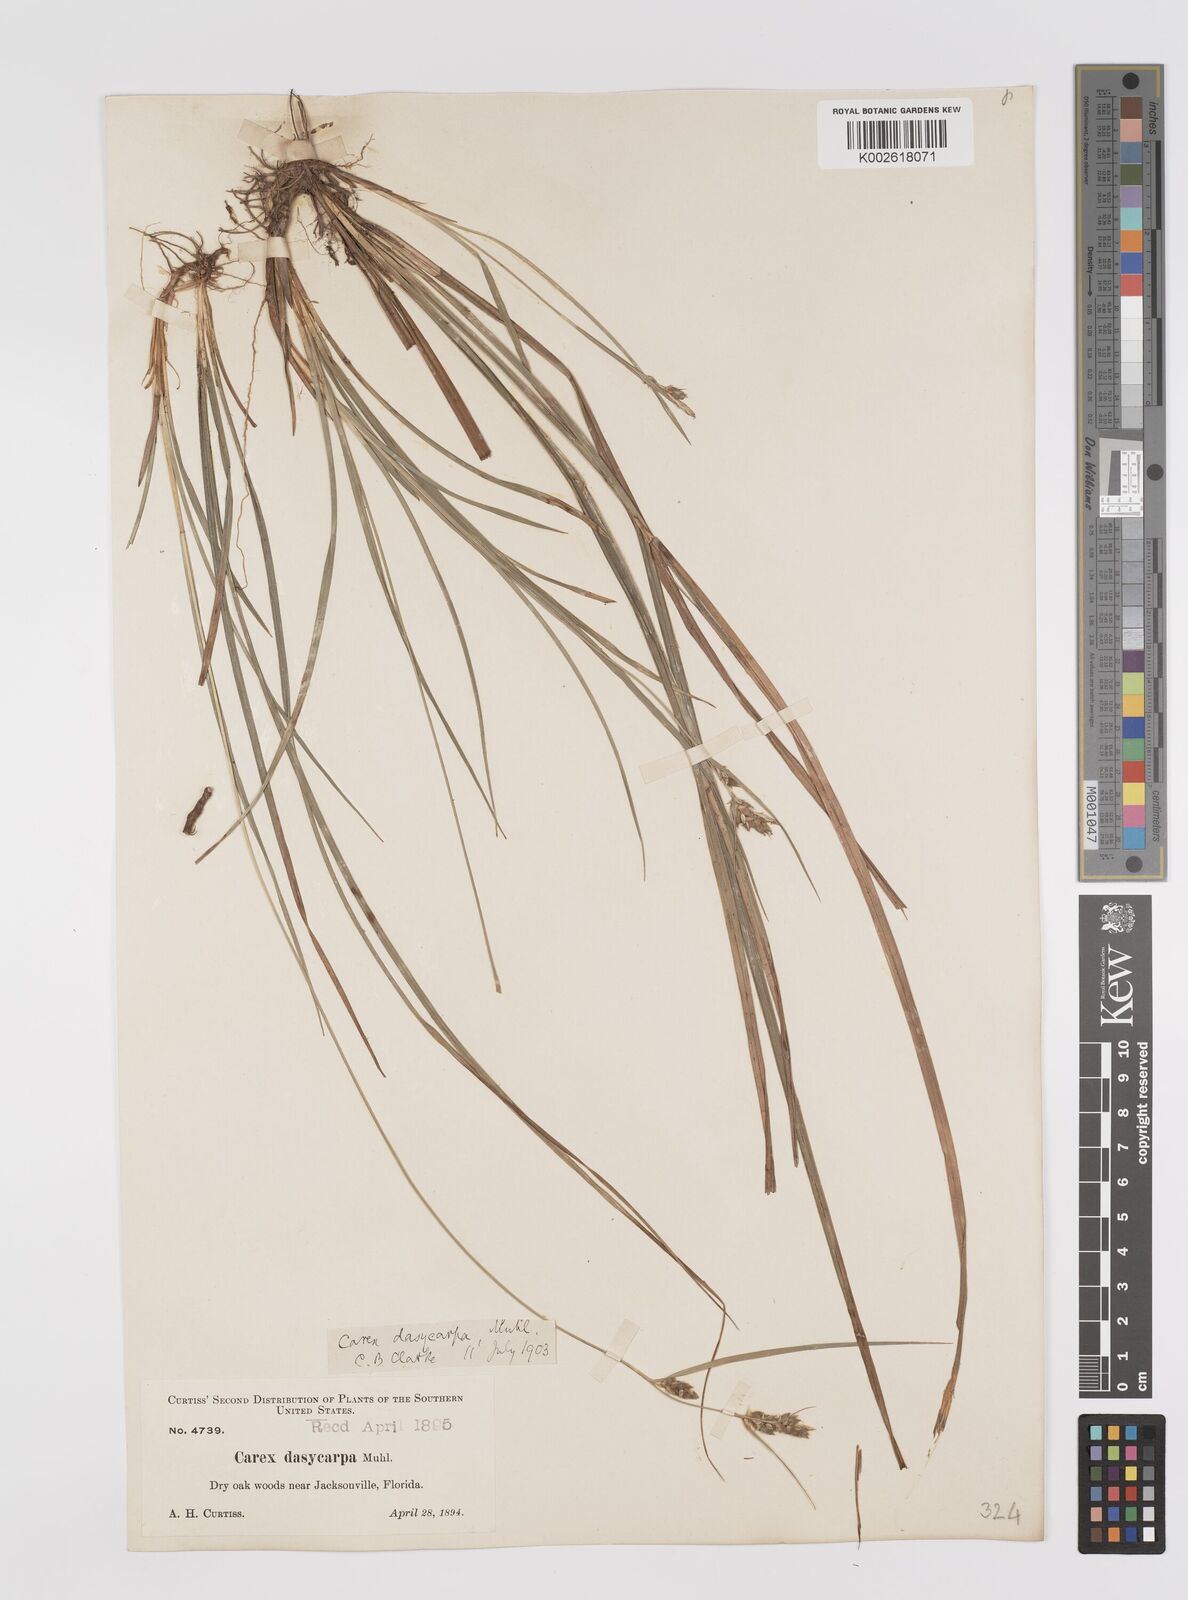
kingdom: Plantae
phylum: Tracheophyta
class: Liliopsida
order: Poales
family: Cyperaceae
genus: Carex
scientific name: Carex dasycarpa
